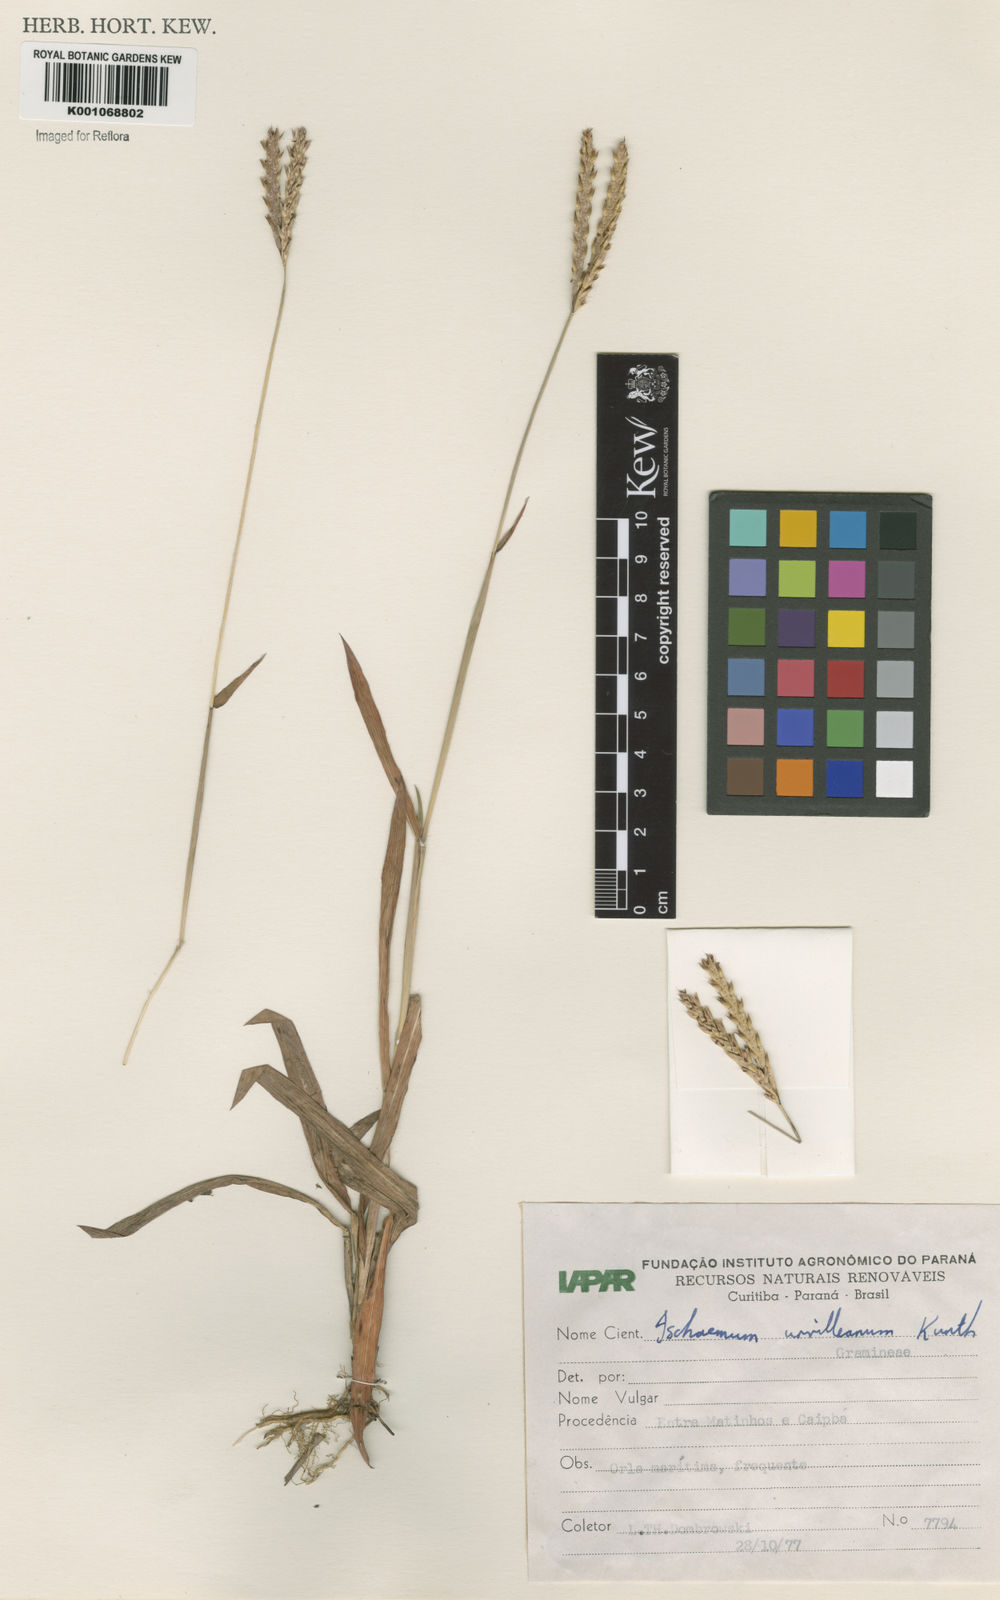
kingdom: Plantae
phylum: Tracheophyta
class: Liliopsida
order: Poales
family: Poaceae
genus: Ischaemum
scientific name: Ischaemum minus
